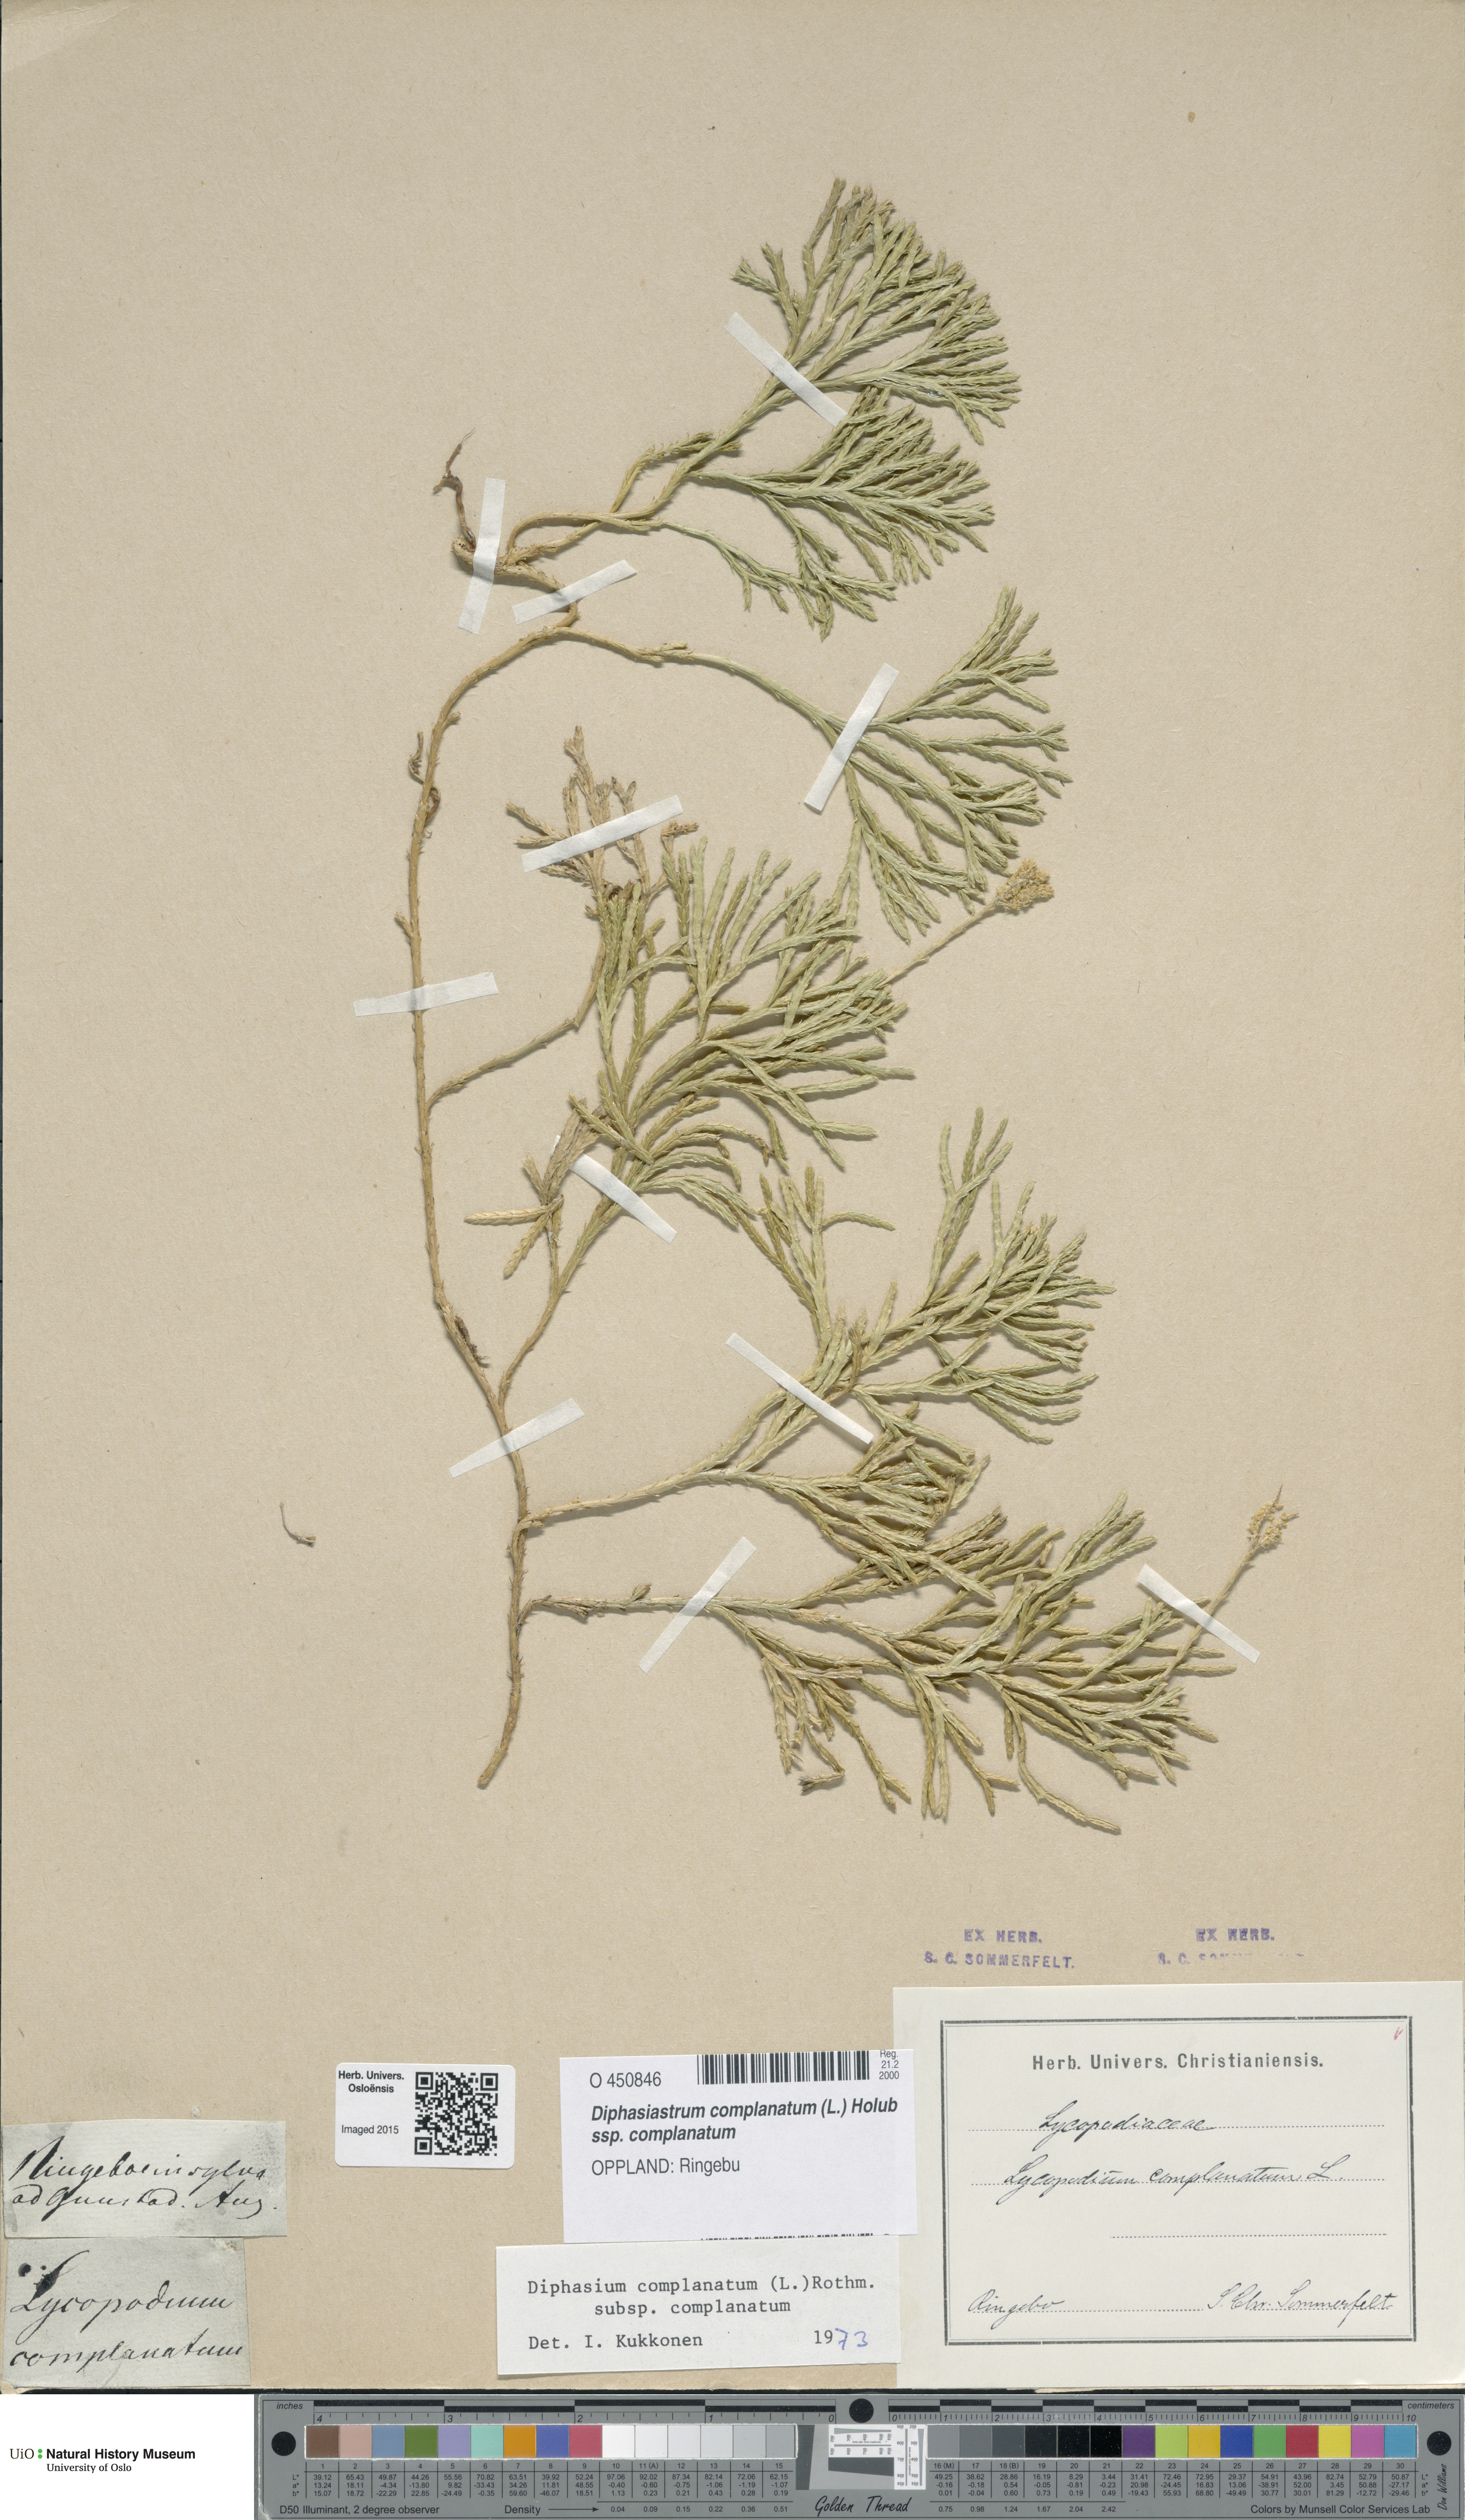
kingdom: Plantae
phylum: Tracheophyta
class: Lycopodiopsida
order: Lycopodiales
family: Lycopodiaceae
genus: Diphasiastrum
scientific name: Diphasiastrum complanatum
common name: Northern running-pine
